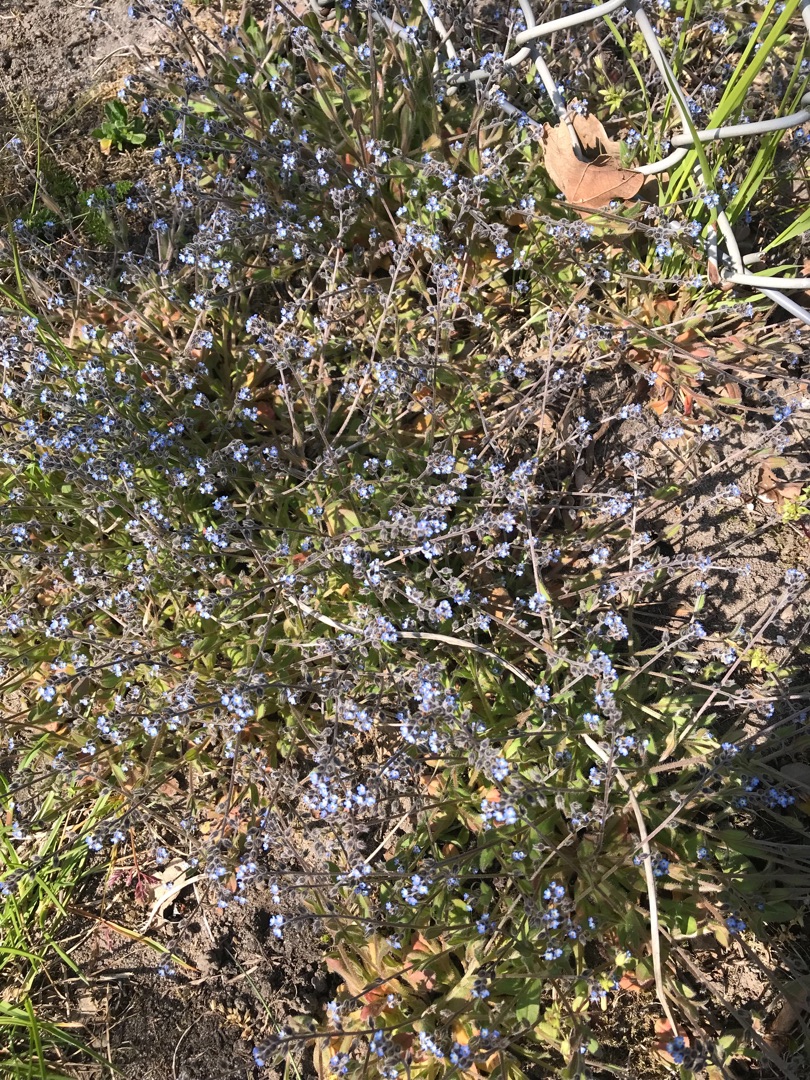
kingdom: Plantae
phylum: Tracheophyta
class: Magnoliopsida
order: Boraginales
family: Boraginaceae
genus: Myosotis
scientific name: Myosotis ramosissima
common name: Bakke-forglemmigej
